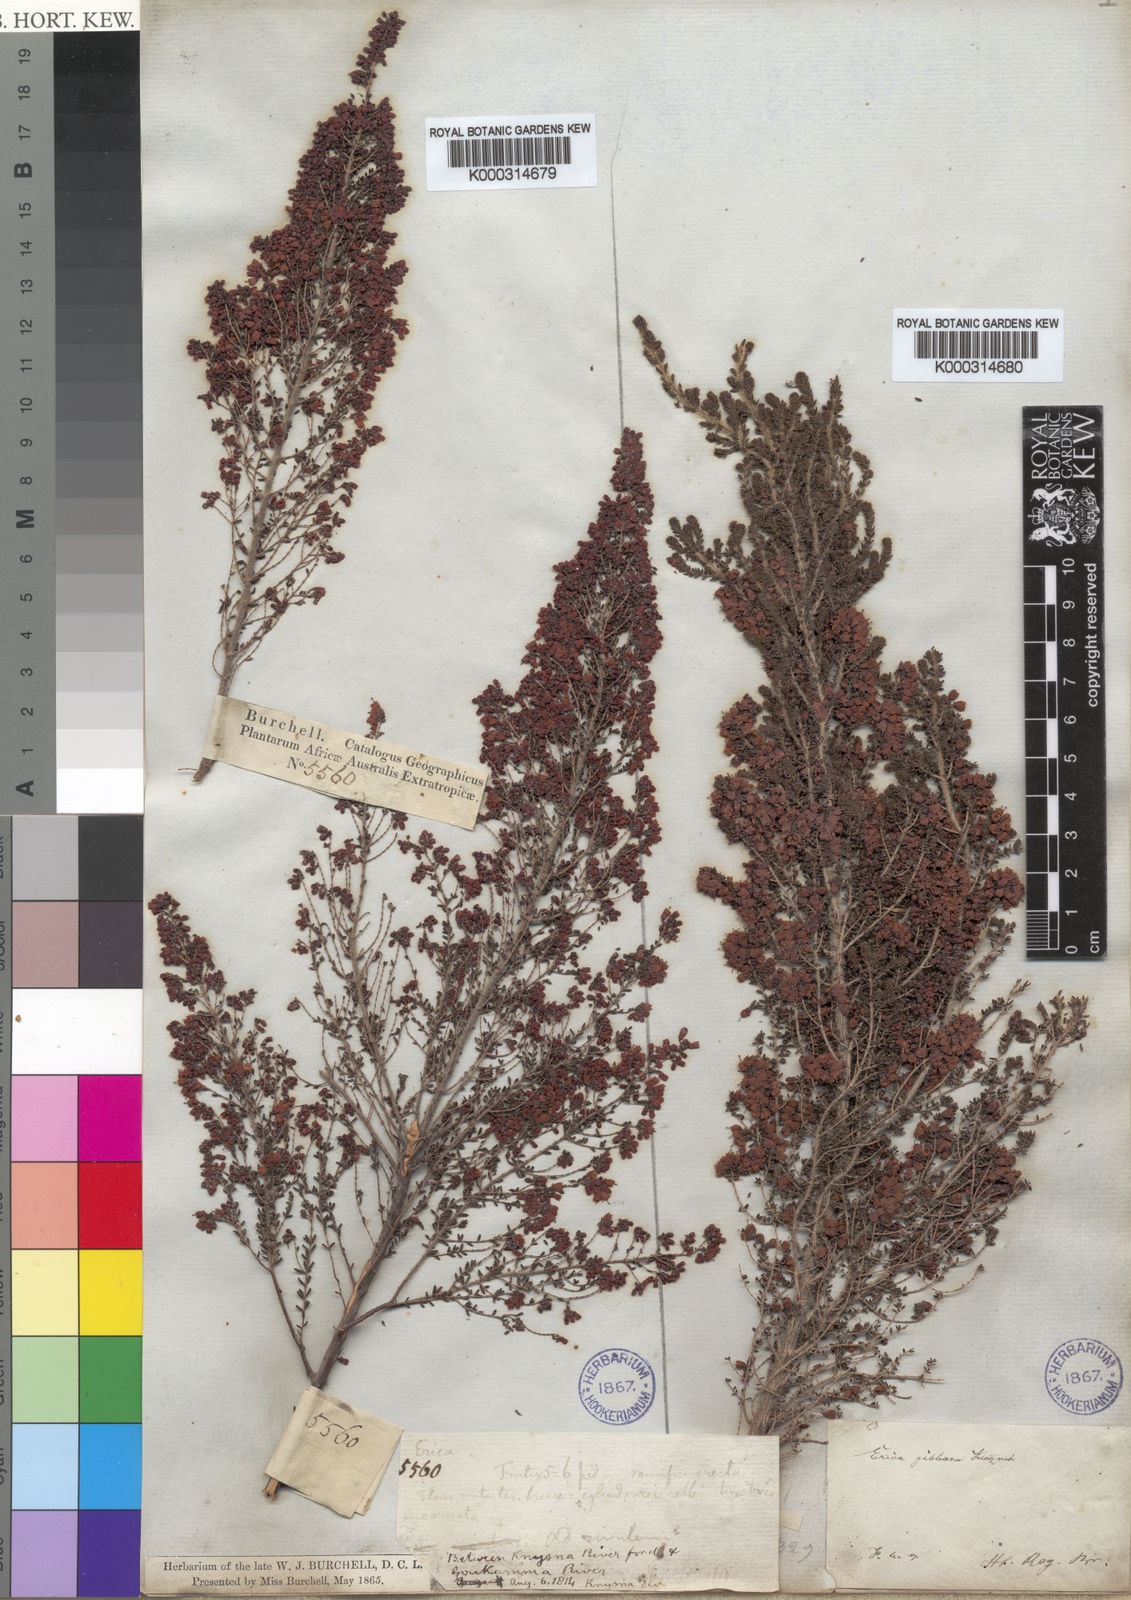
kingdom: Plantae
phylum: Tracheophyta
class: Magnoliopsida
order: Ericales
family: Ericaceae
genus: Erica
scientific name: Erica scabriuscula
